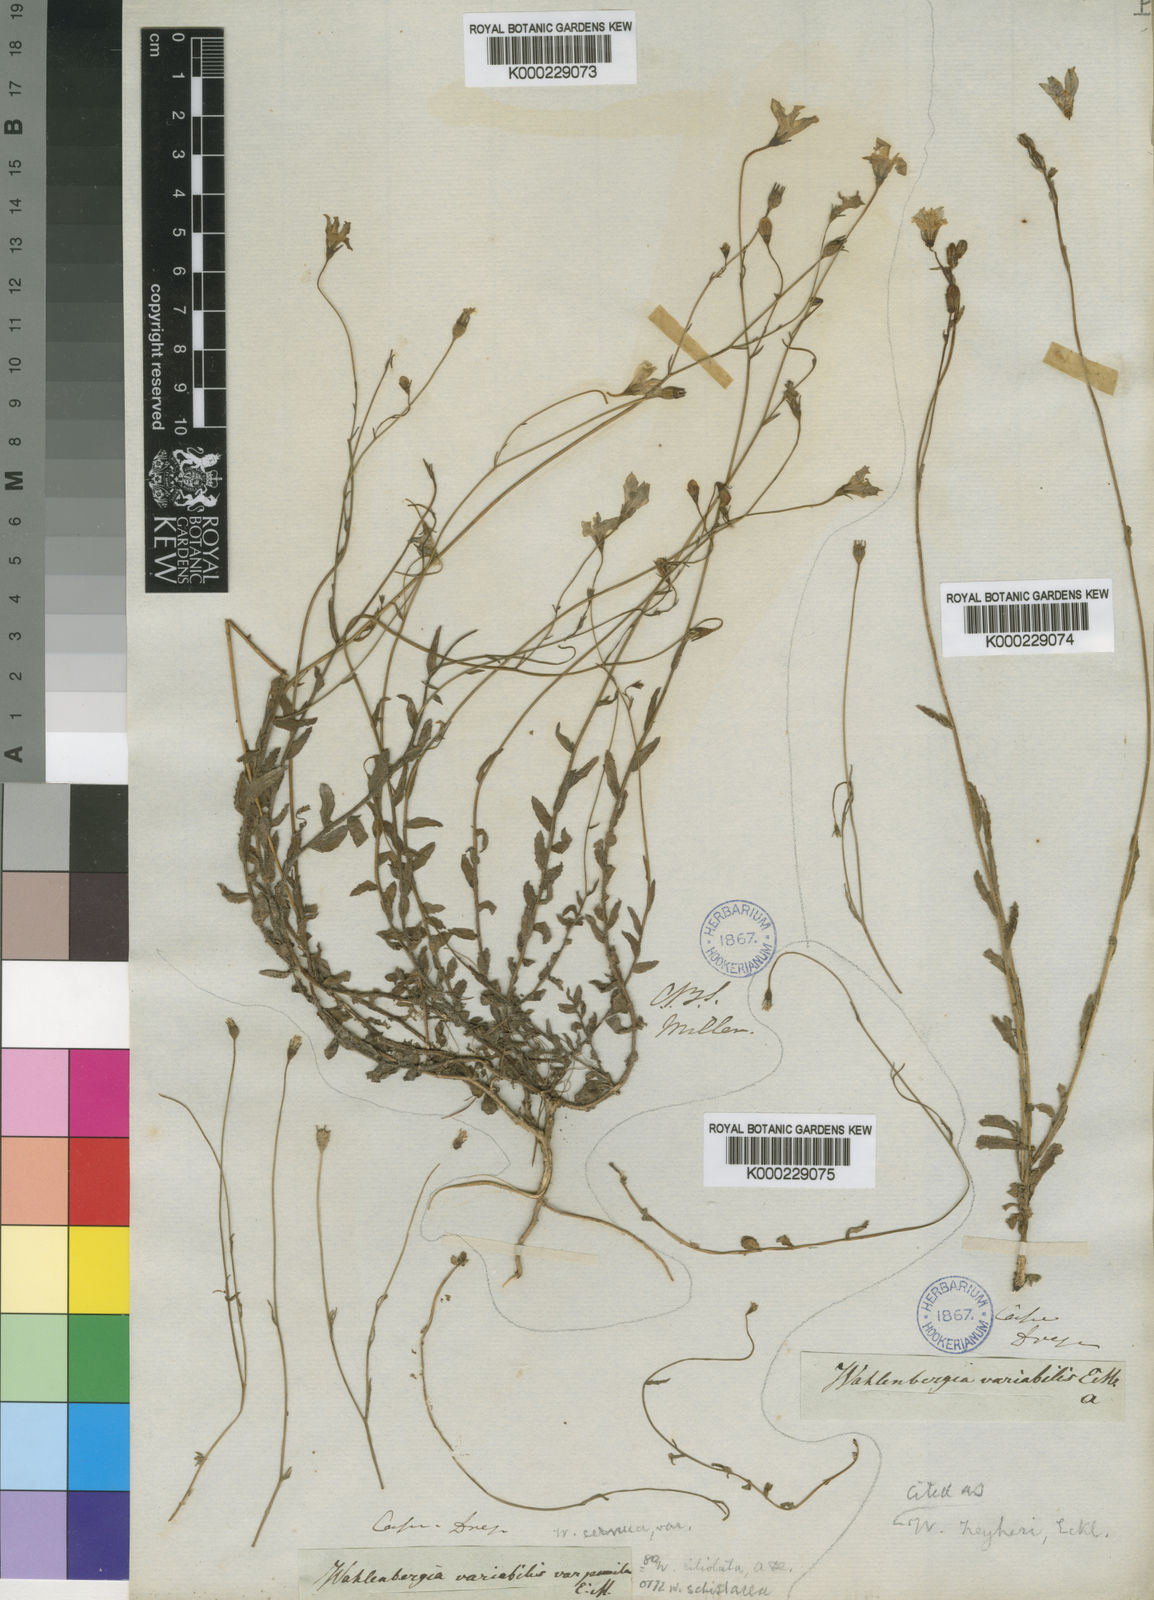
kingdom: Plantae
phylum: Tracheophyta
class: Magnoliopsida
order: Asterales
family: Campanulaceae
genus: Wahlenbergia
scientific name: Wahlenbergia schistacea
